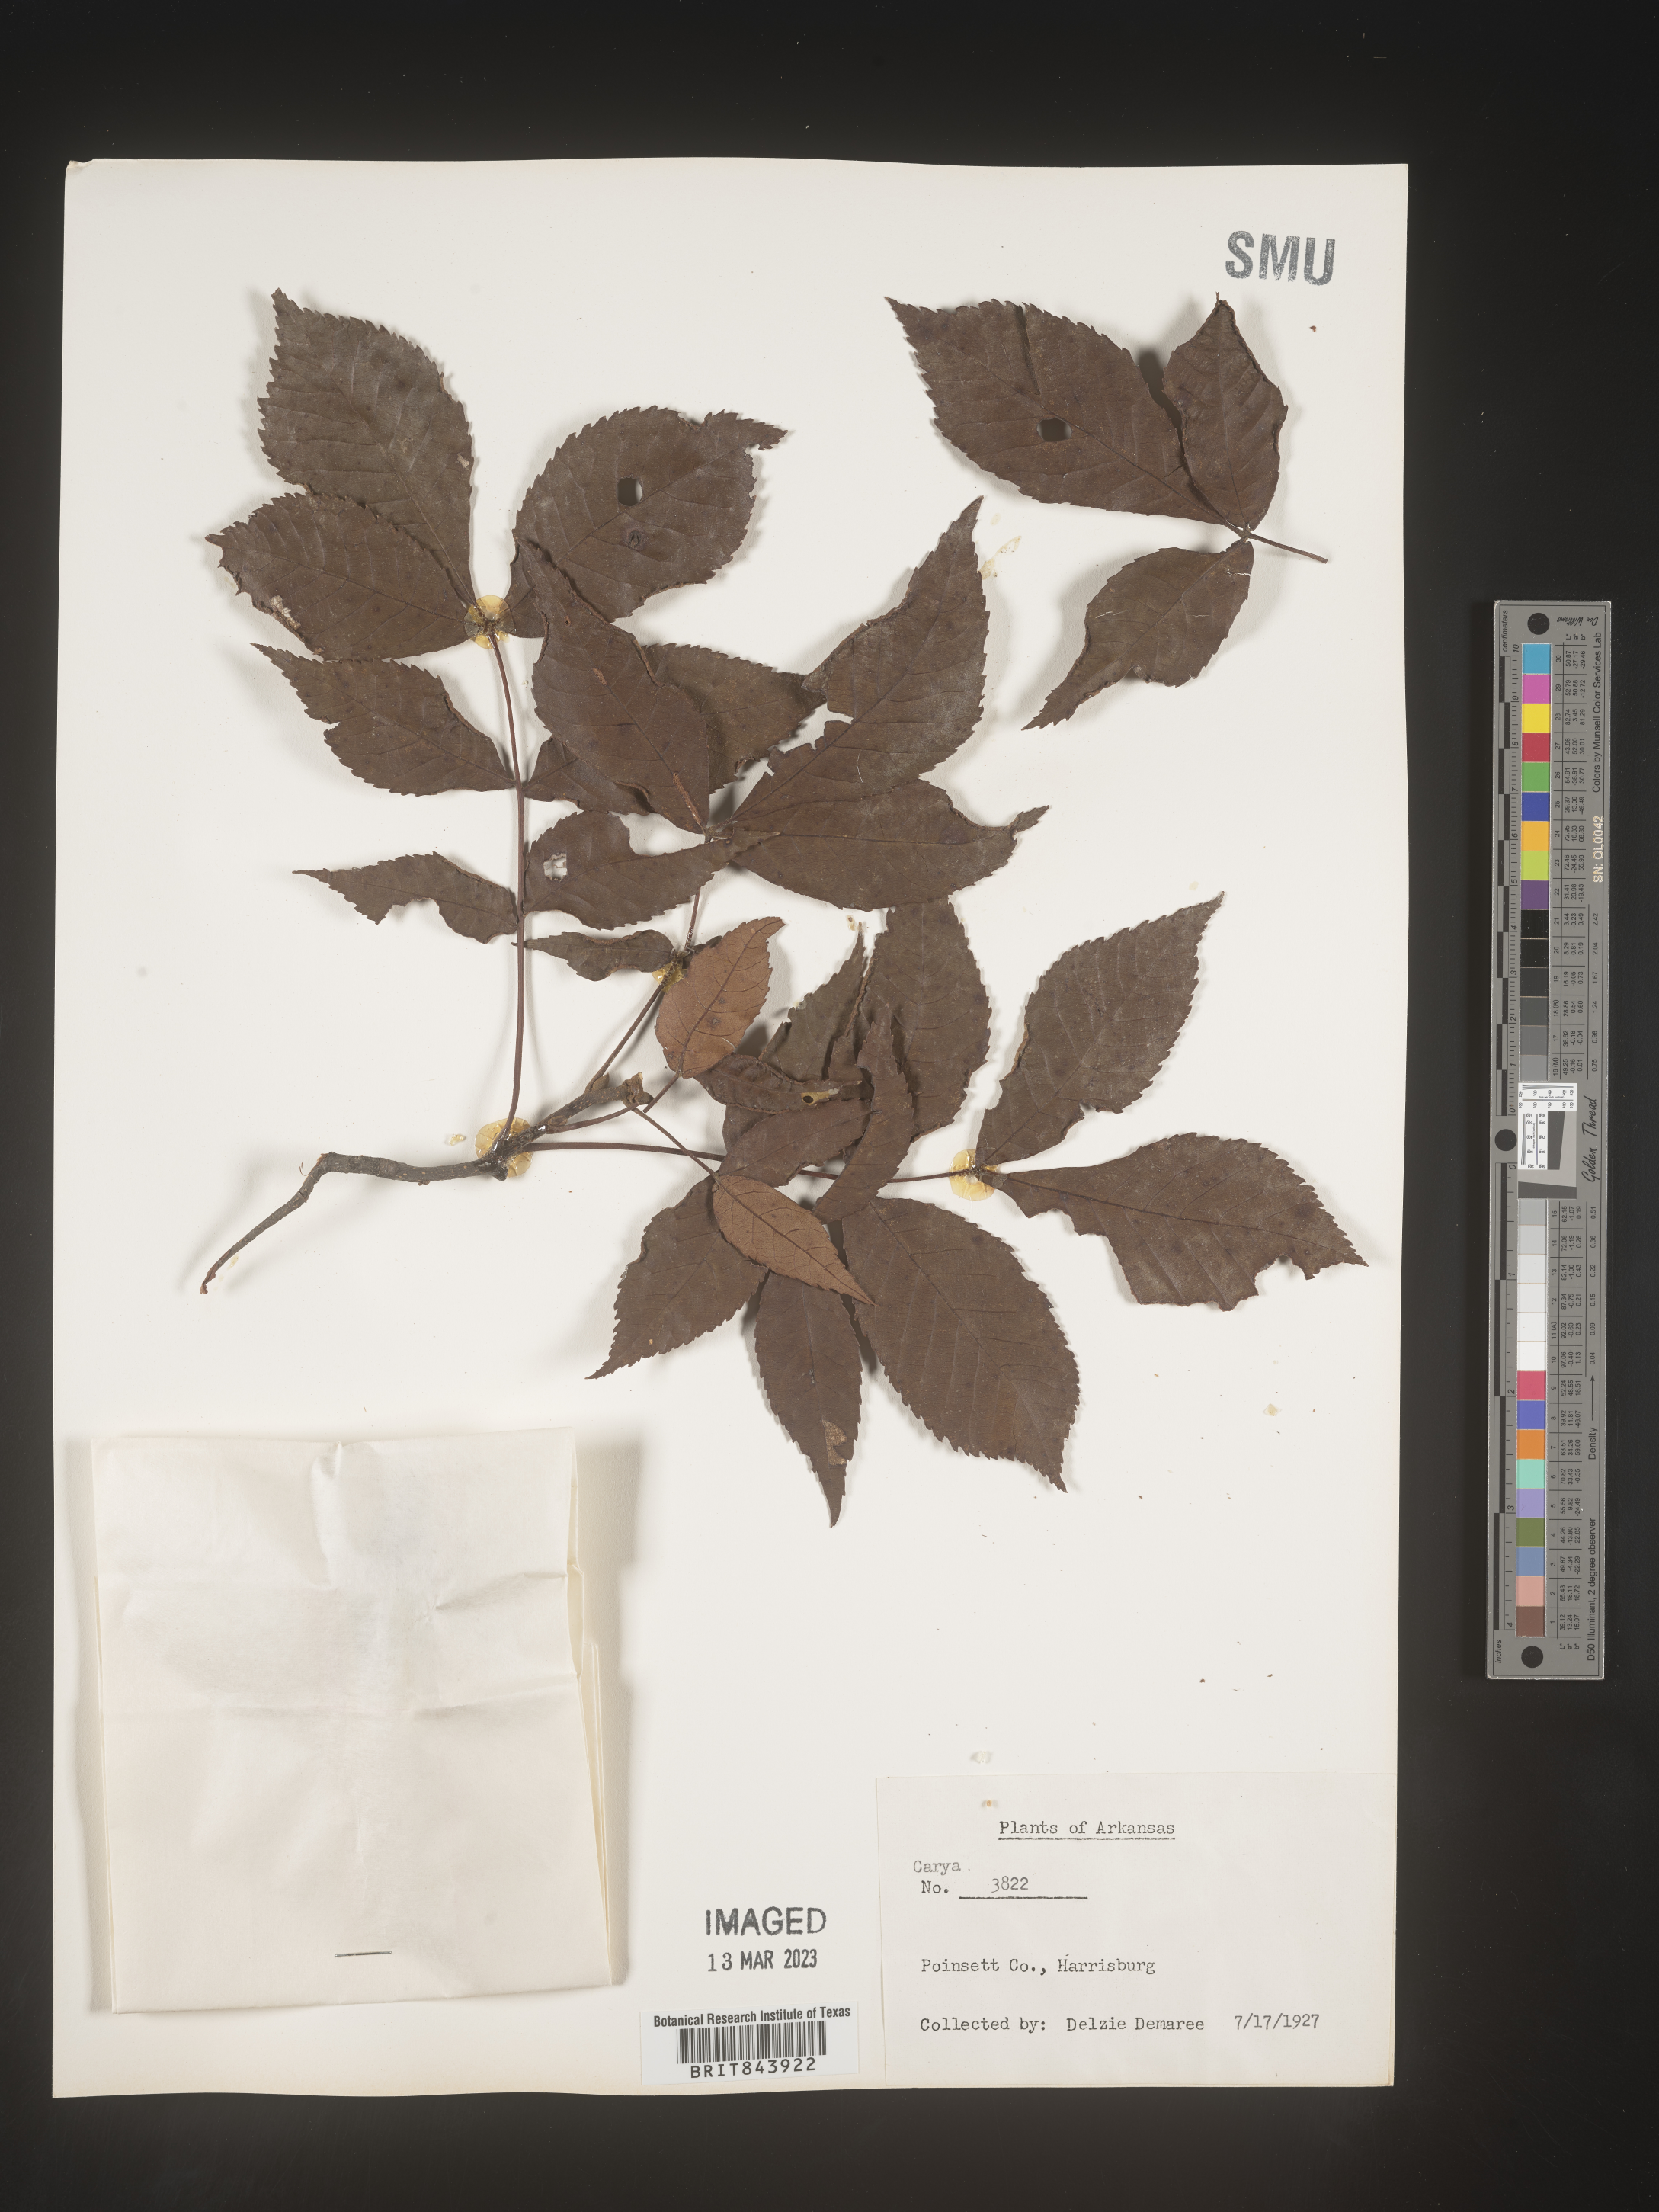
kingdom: Plantae
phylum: Tracheophyta
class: Magnoliopsida
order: Fagales
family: Juglandaceae
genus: Carya
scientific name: Carya
